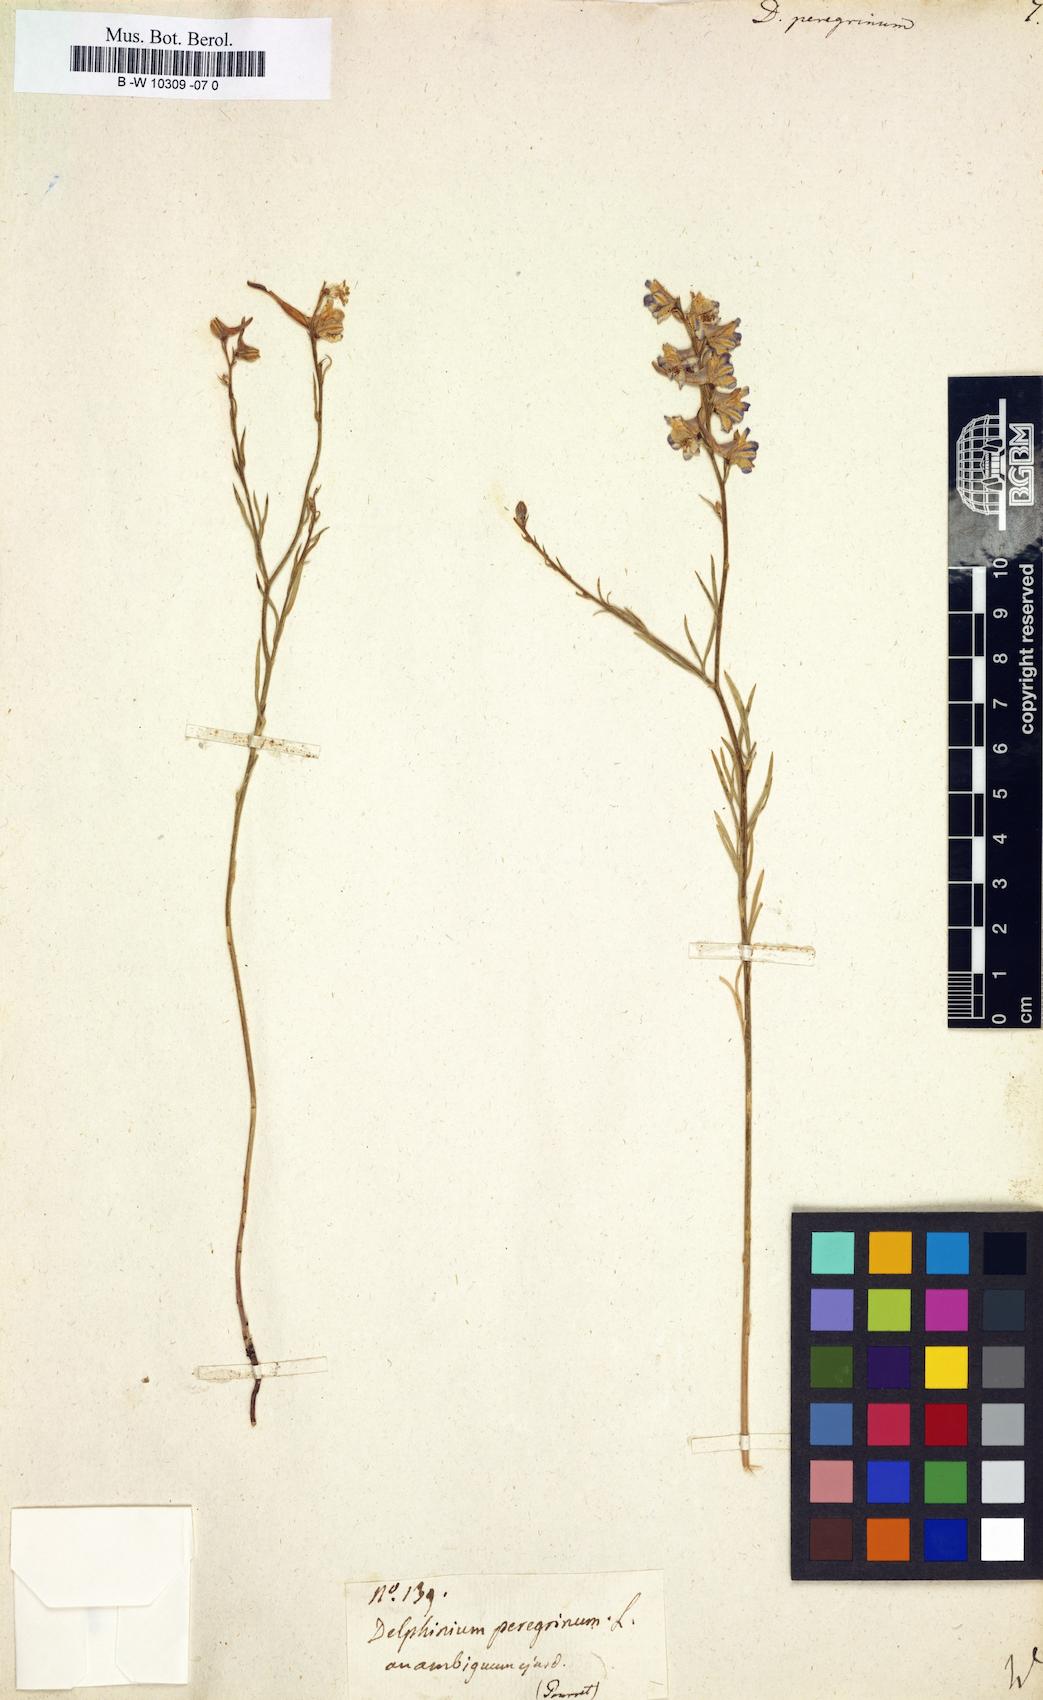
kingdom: Plantae
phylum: Tracheophyta
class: Magnoliopsida
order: Ranunculales
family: Ranunculaceae
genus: Delphinium
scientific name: Delphinium peregrinum
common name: Violet larkspur
